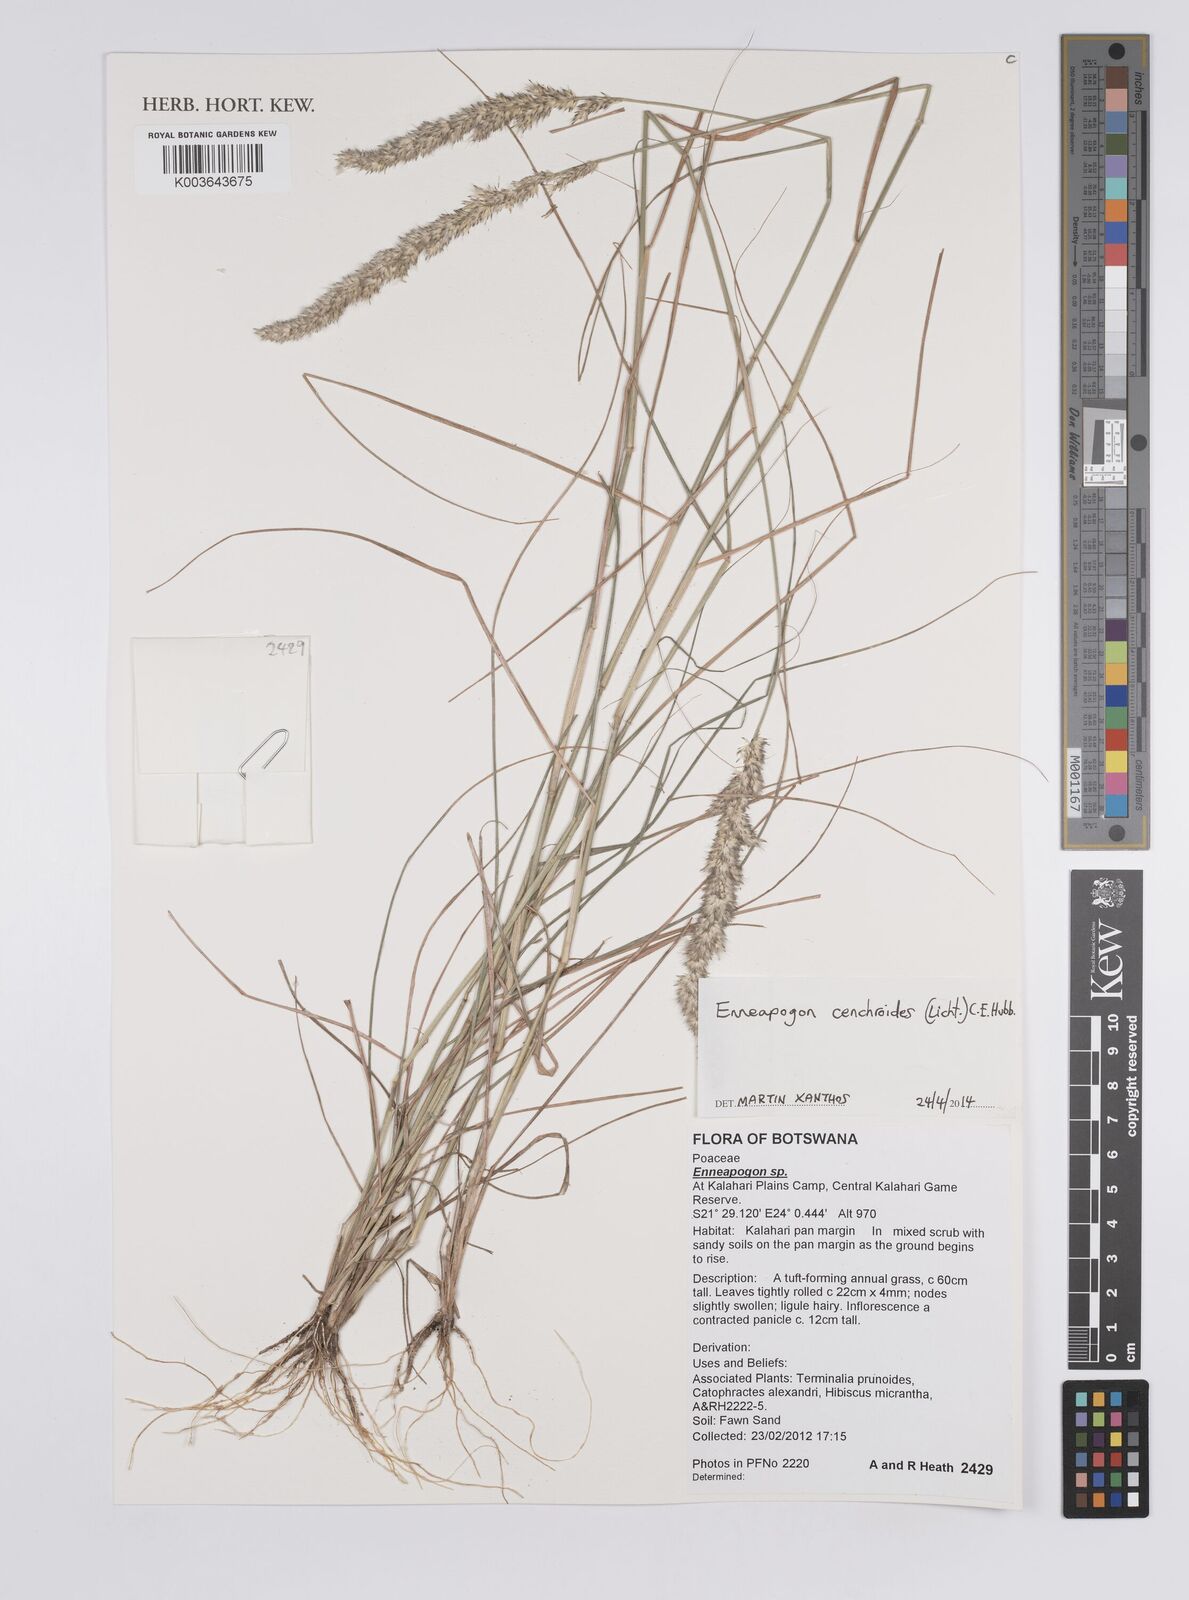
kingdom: Plantae
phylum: Tracheophyta
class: Liliopsida
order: Poales
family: Poaceae
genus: Enneapogon
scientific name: Enneapogon cenchroides
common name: Soft feather pappusgrass
